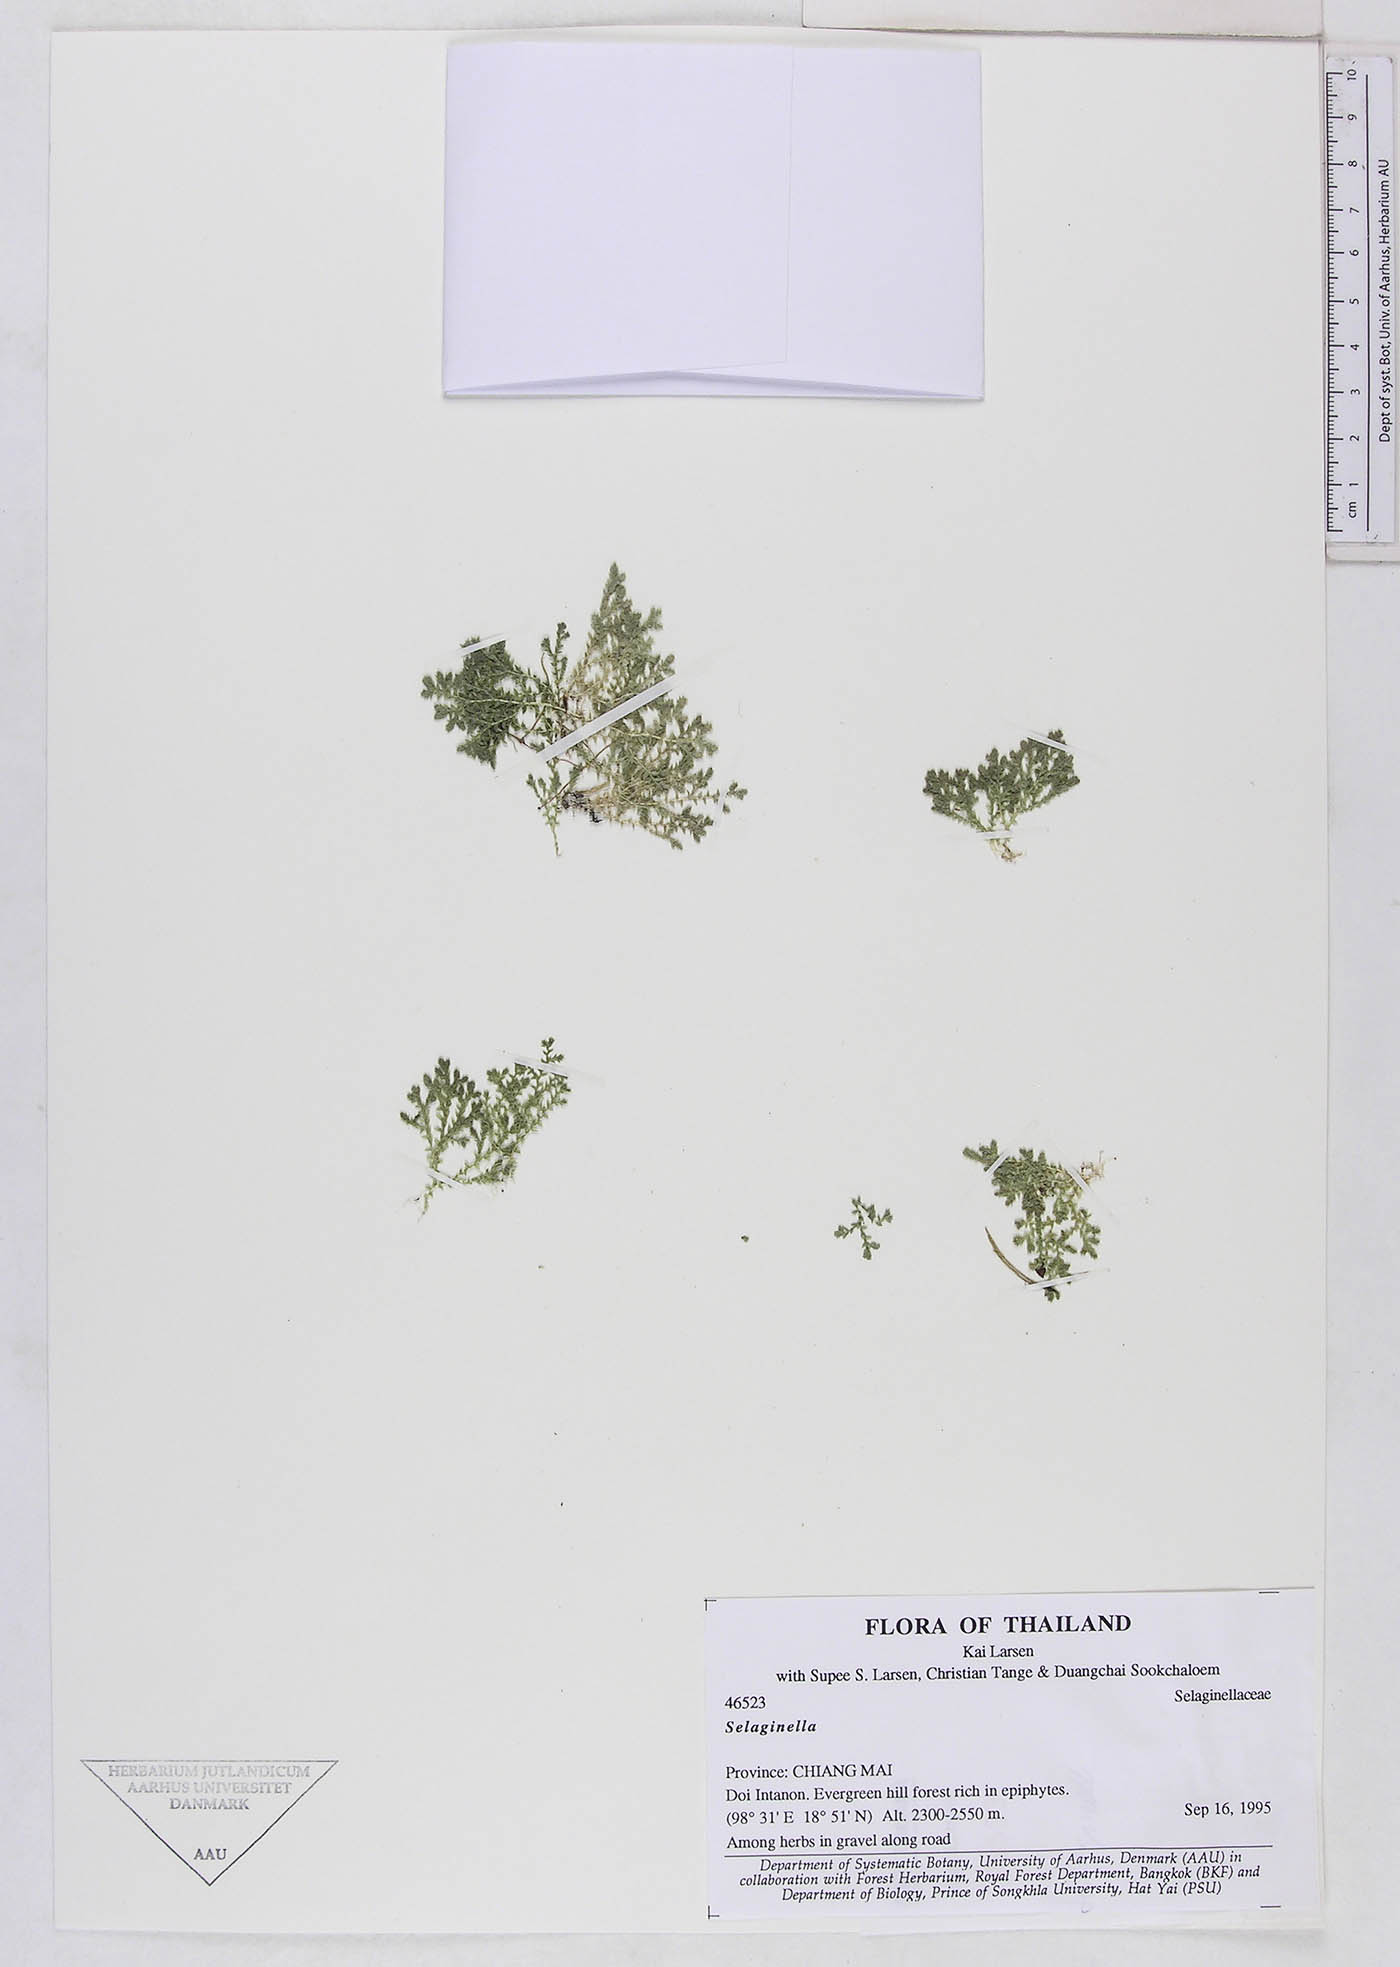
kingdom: Plantae
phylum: Tracheophyta
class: Lycopodiopsida
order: Selaginellales
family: Selaginellaceae
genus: Selaginella
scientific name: Selaginella
